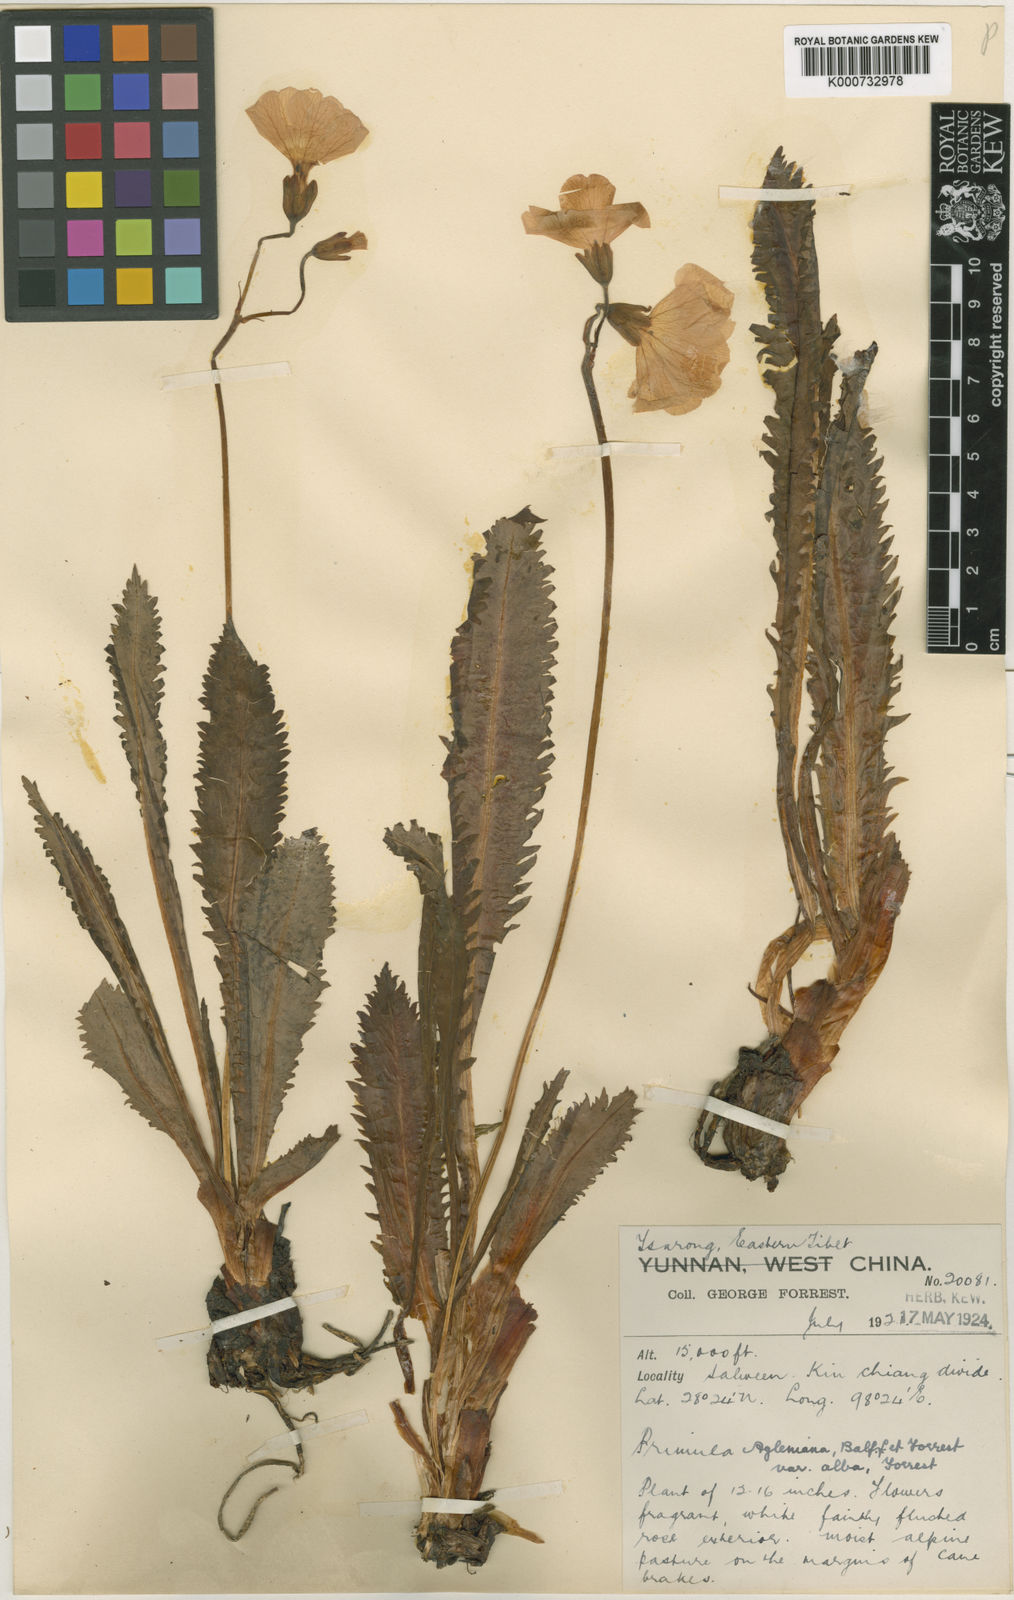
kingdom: Plantae
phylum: Tracheophyta
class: Magnoliopsida
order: Ericales
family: Primulaceae
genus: Primula
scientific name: Primula agleniana
